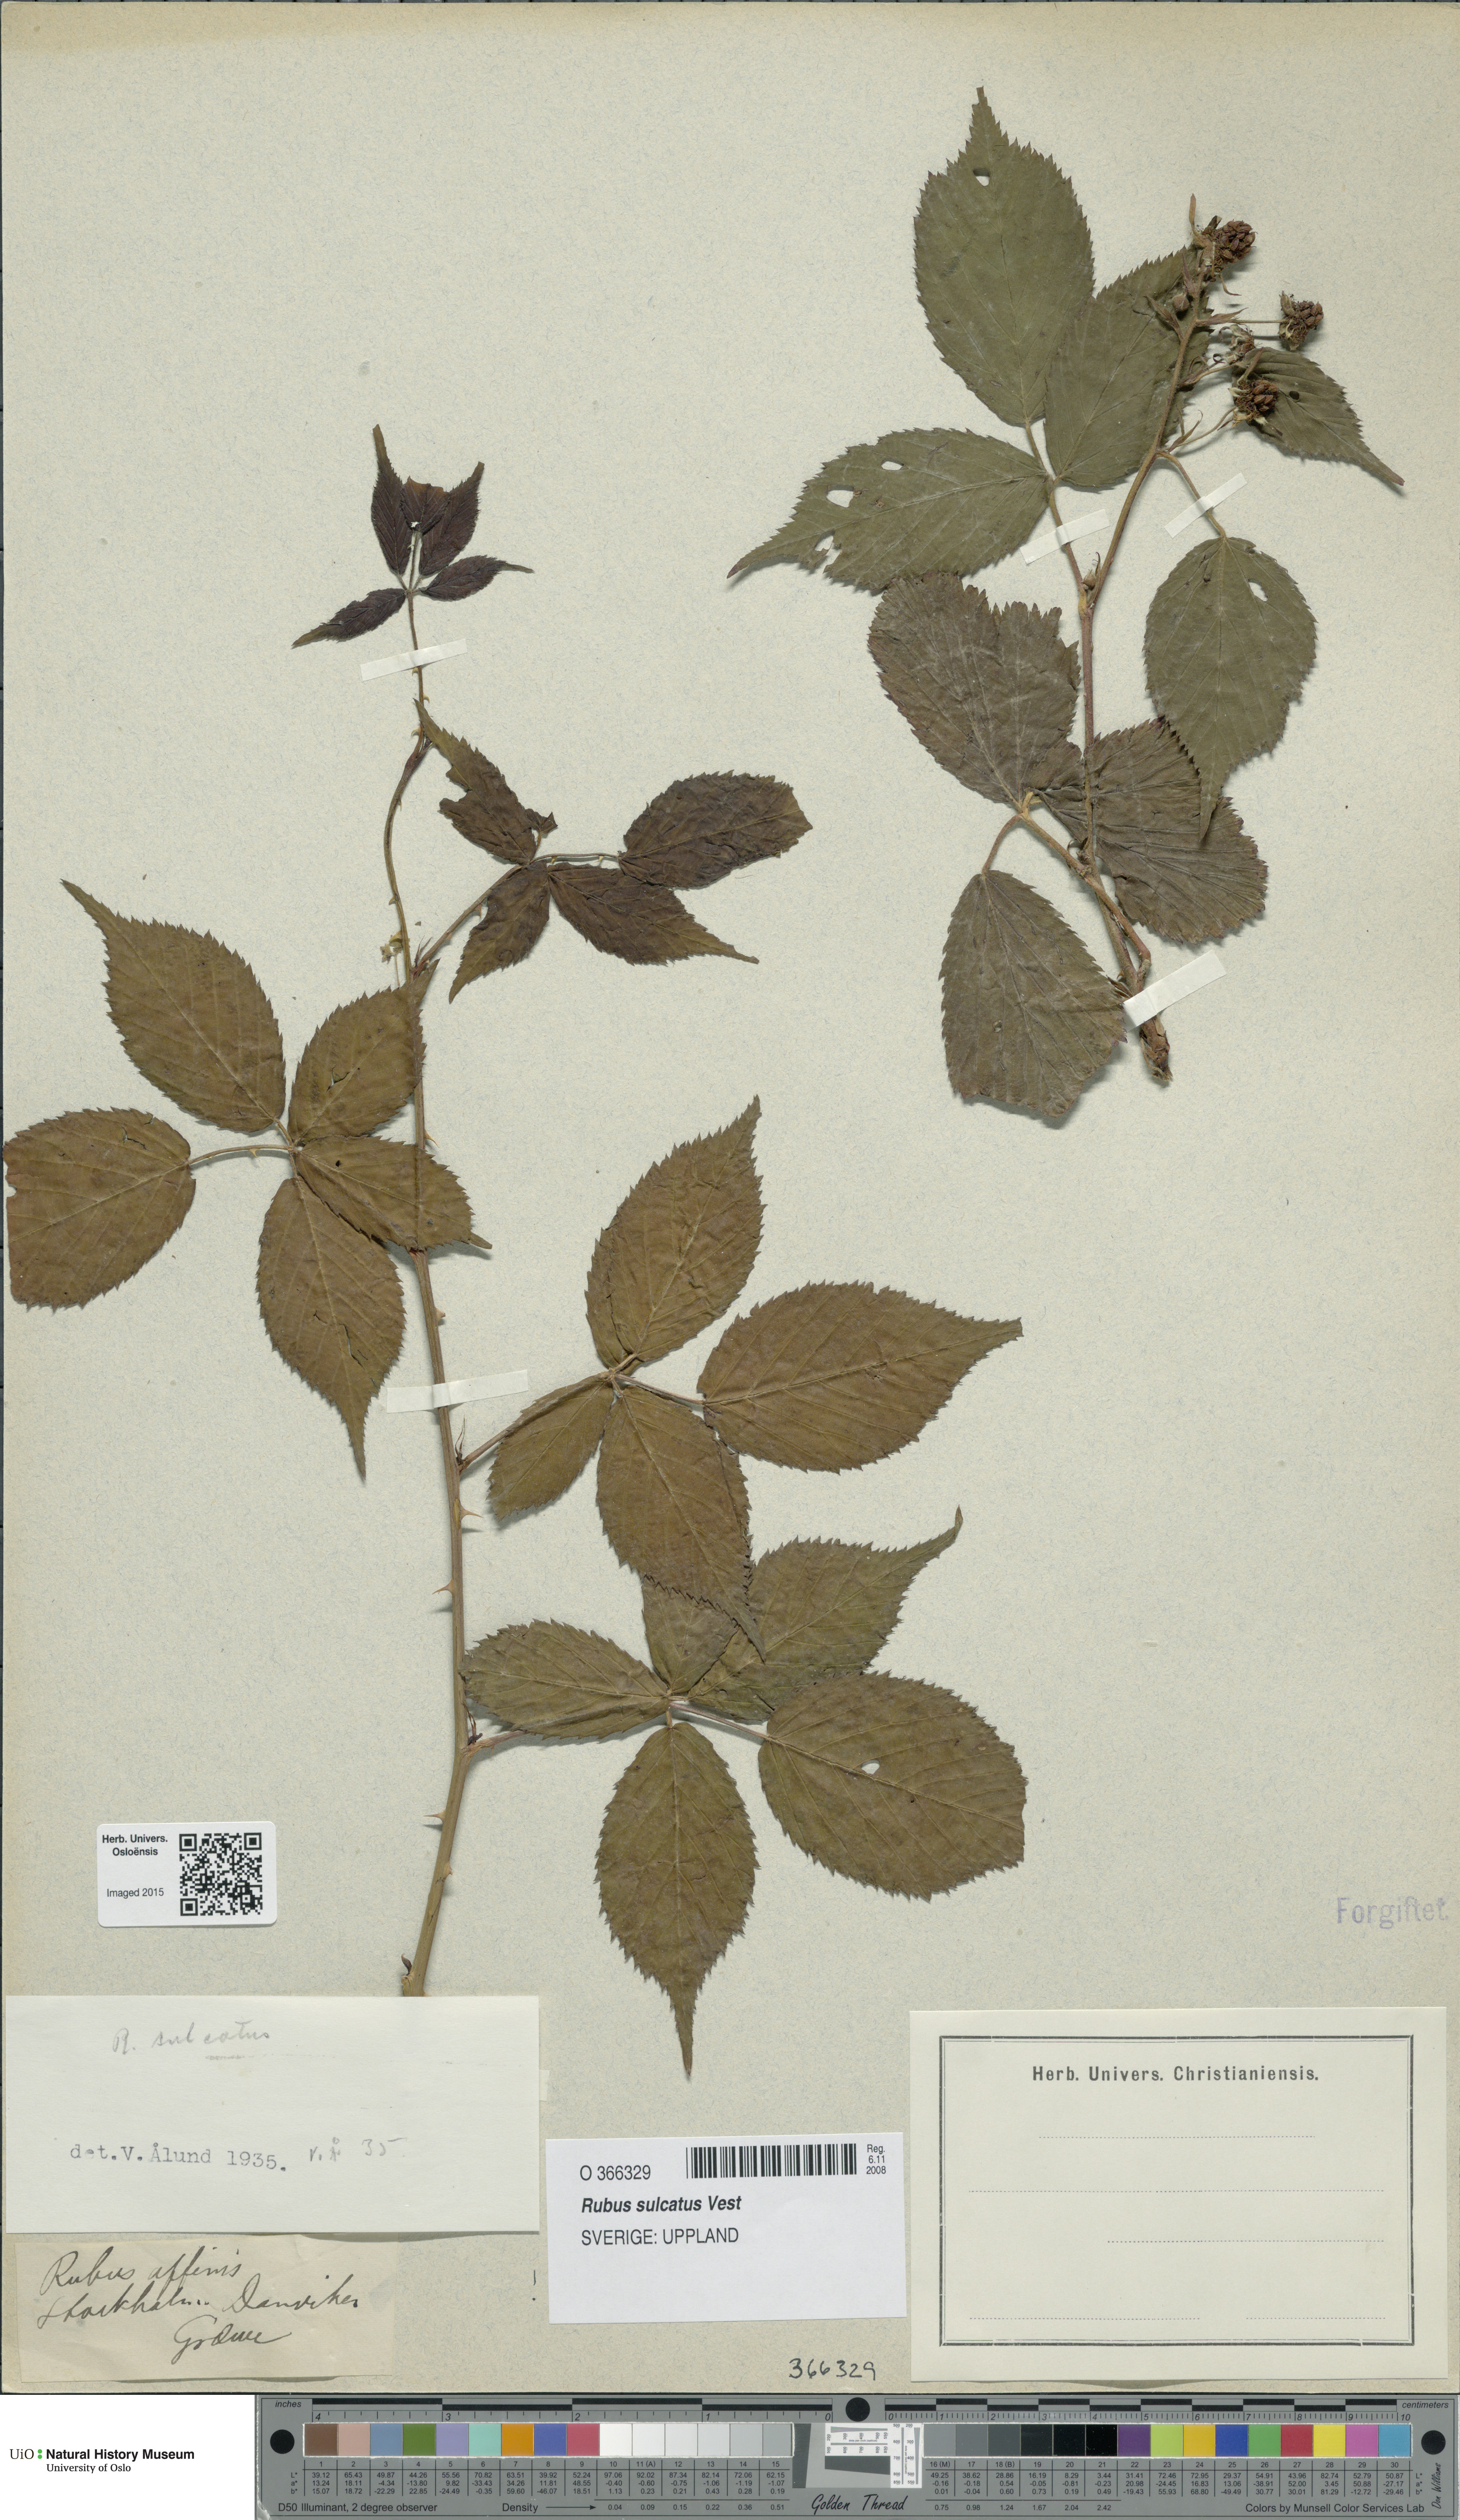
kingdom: Plantae
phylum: Tracheophyta
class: Magnoliopsida
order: Rosales
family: Rosaceae
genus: Rubus
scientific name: Rubus sulcatus
